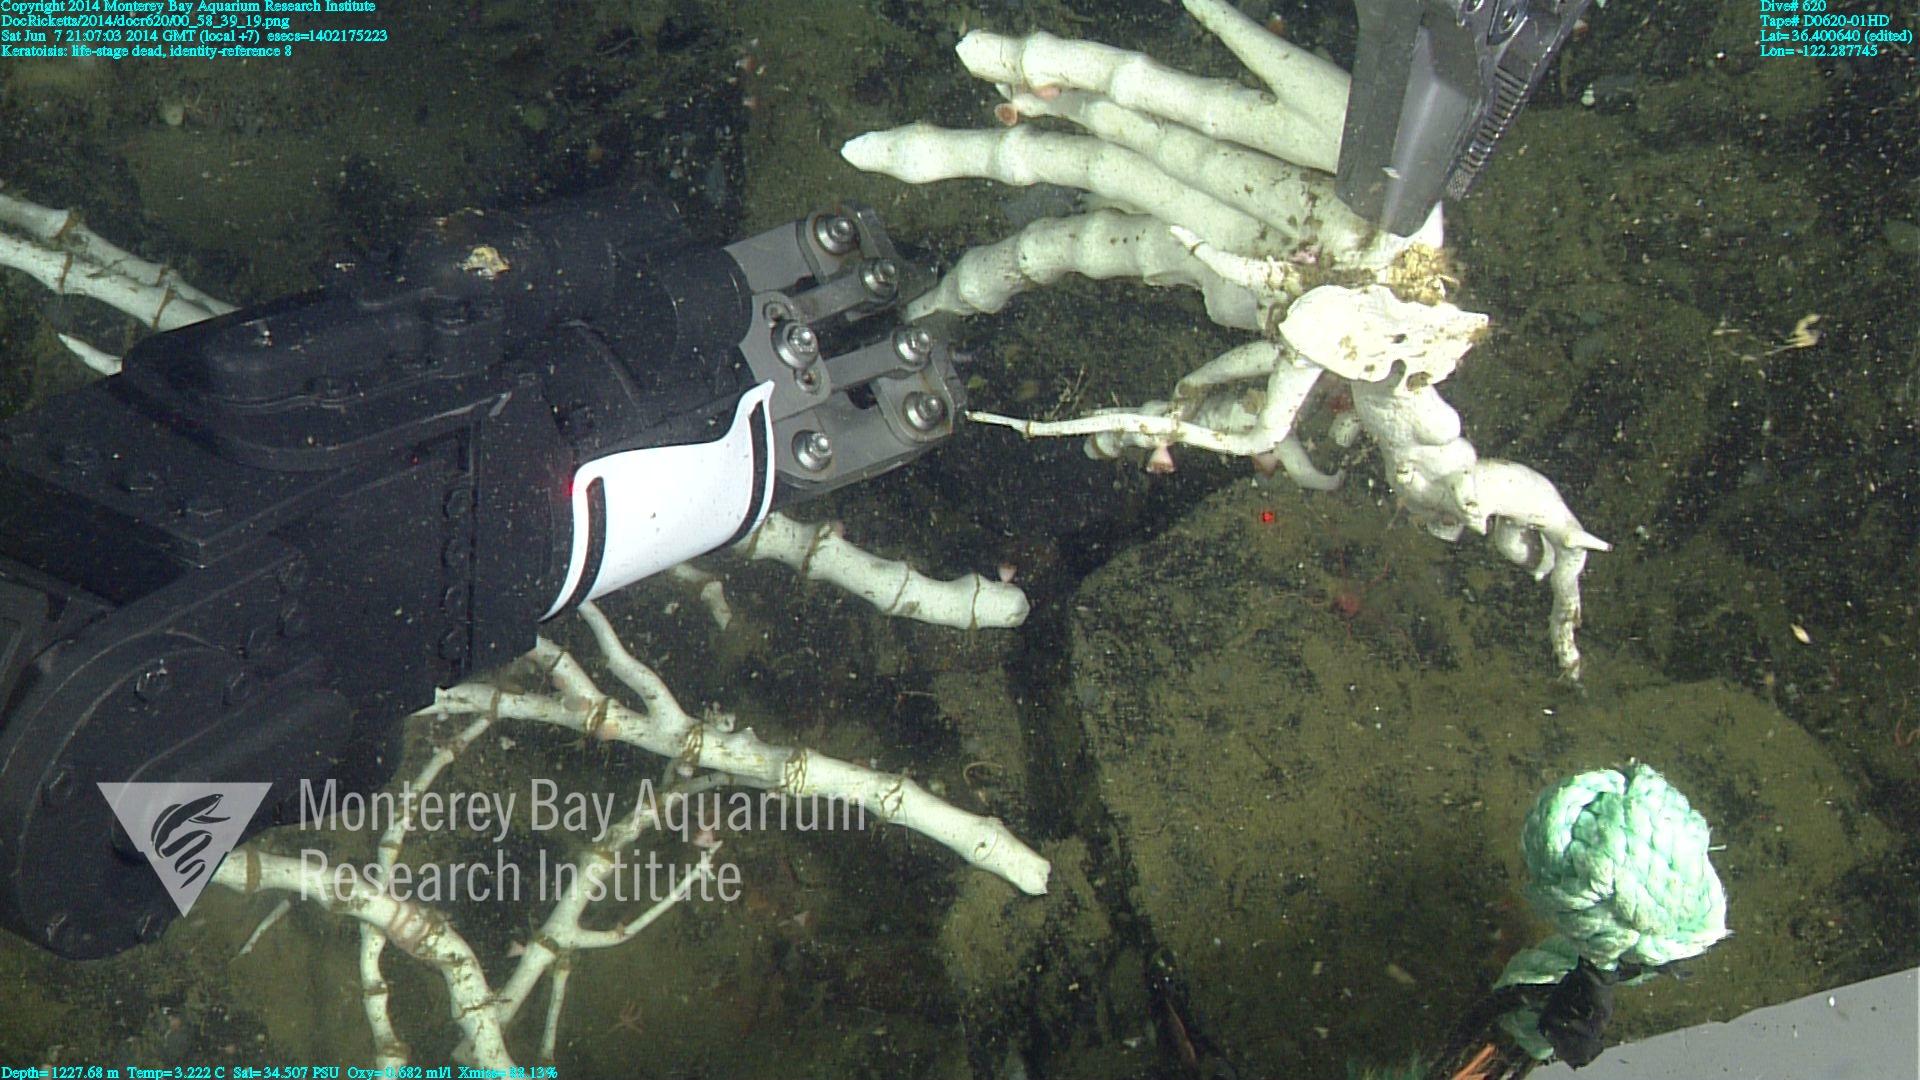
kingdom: Animalia
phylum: Cnidaria
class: Anthozoa
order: Scleralcyonacea
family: Keratoisididae
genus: Keratoisis
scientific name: Keratoisis
